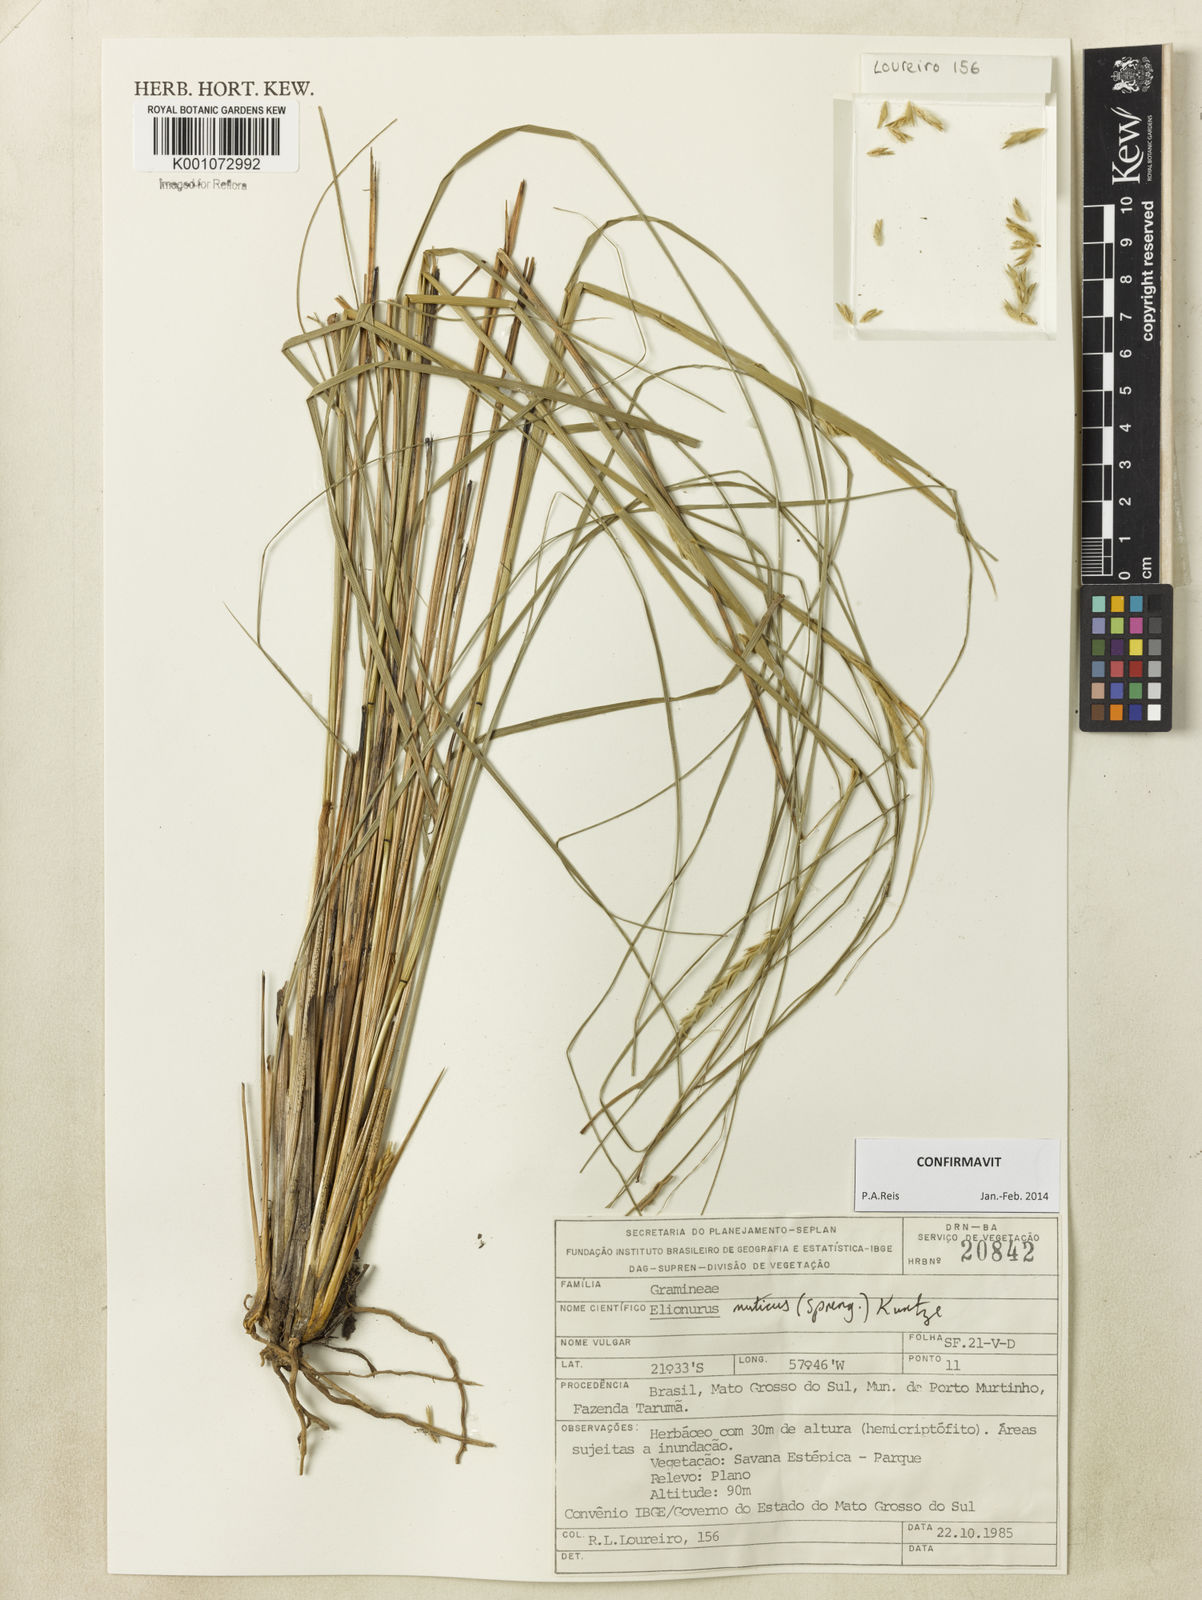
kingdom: Plantae
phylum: Tracheophyta
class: Liliopsida
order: Poales
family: Poaceae
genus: Elionurus
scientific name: Elionurus muticus
